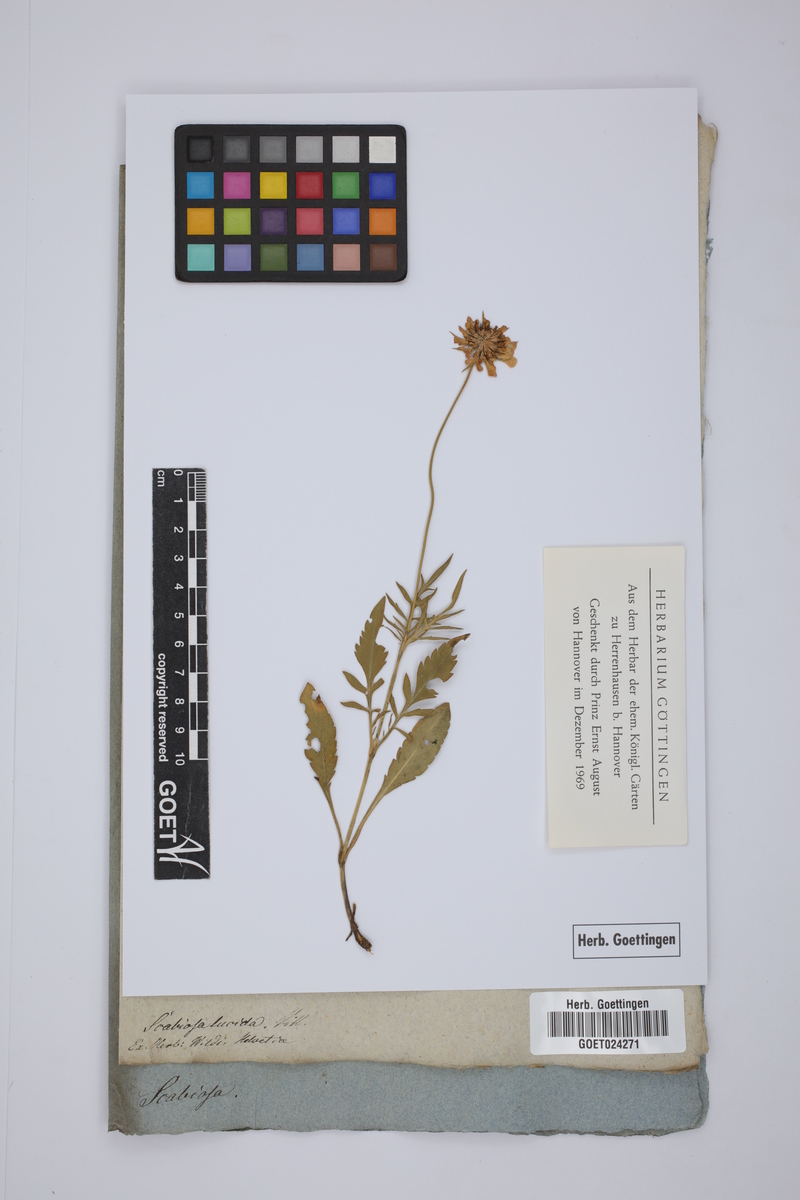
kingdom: Plantae
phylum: Tracheophyta
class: Magnoliopsida
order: Dipsacales
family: Caprifoliaceae
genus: Scabiosa
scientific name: Scabiosa lucida
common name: Shining scabious
